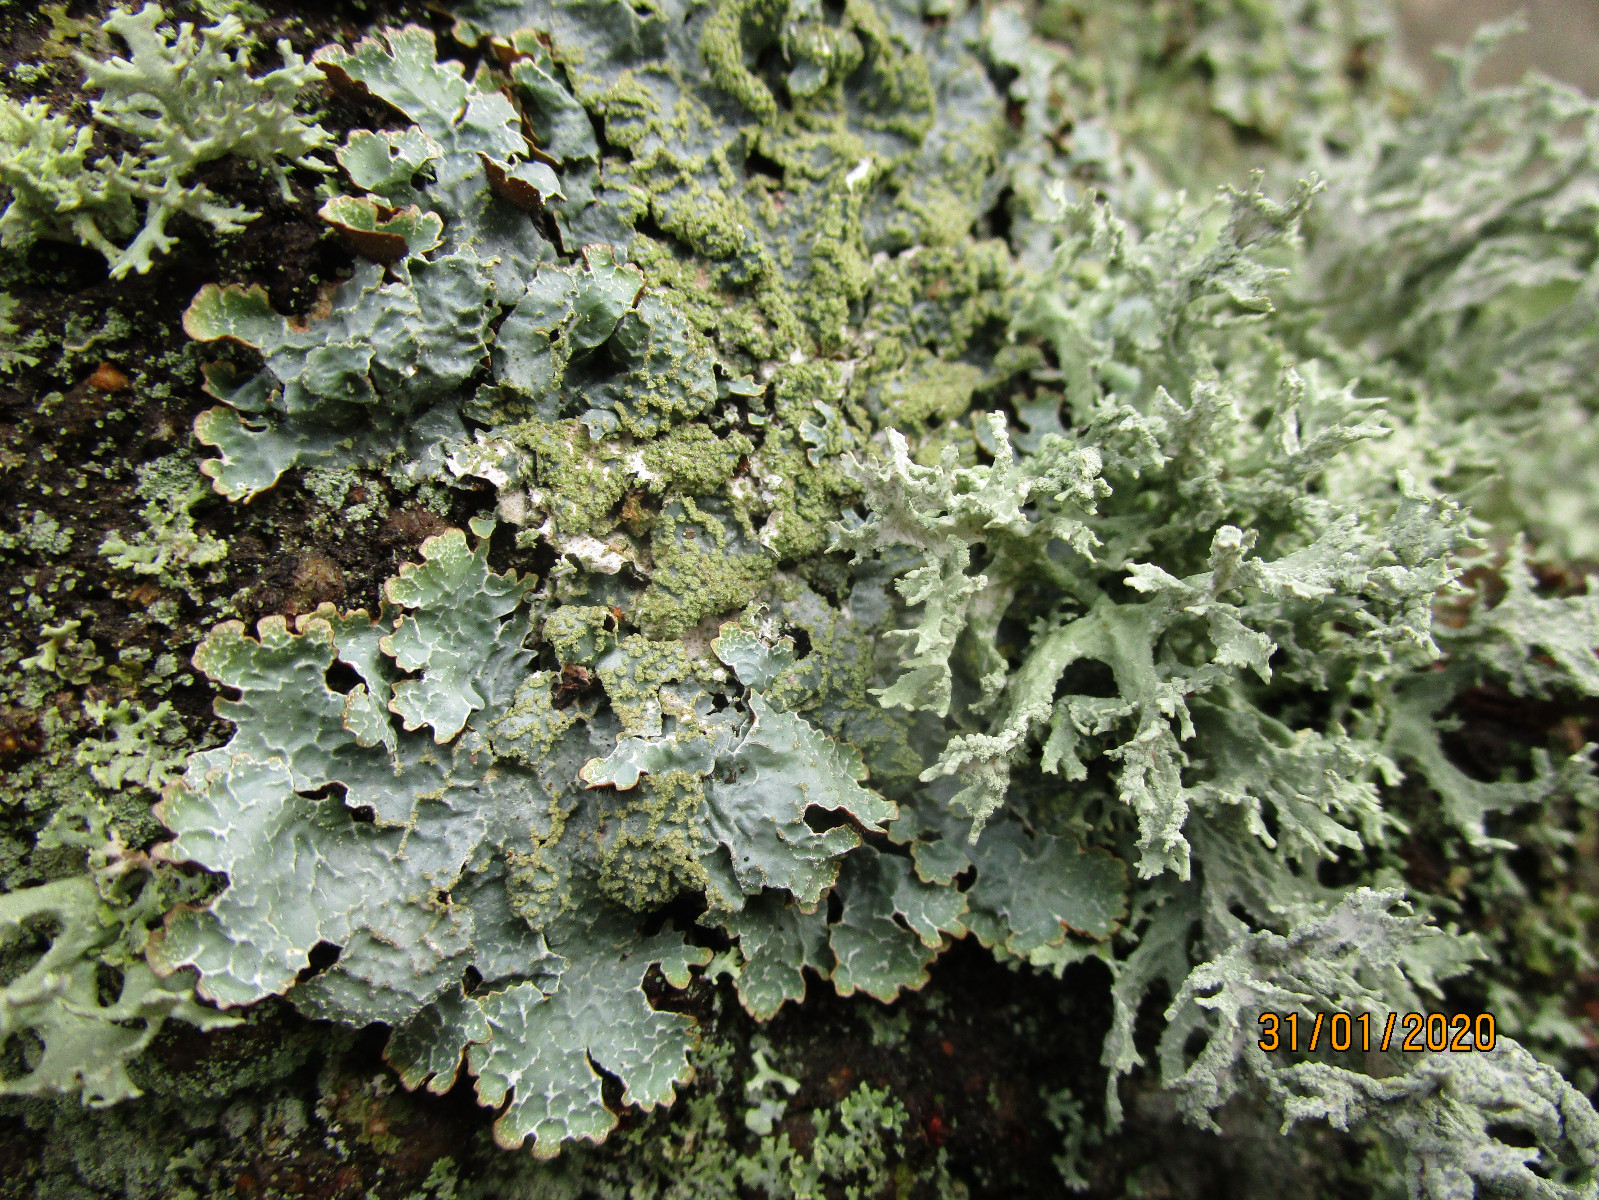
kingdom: Fungi
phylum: Ascomycota
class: Lecanoromycetes
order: Lecanorales
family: Parmeliaceae
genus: Parmelia
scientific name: Parmelia sulcata
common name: rynket skållav
